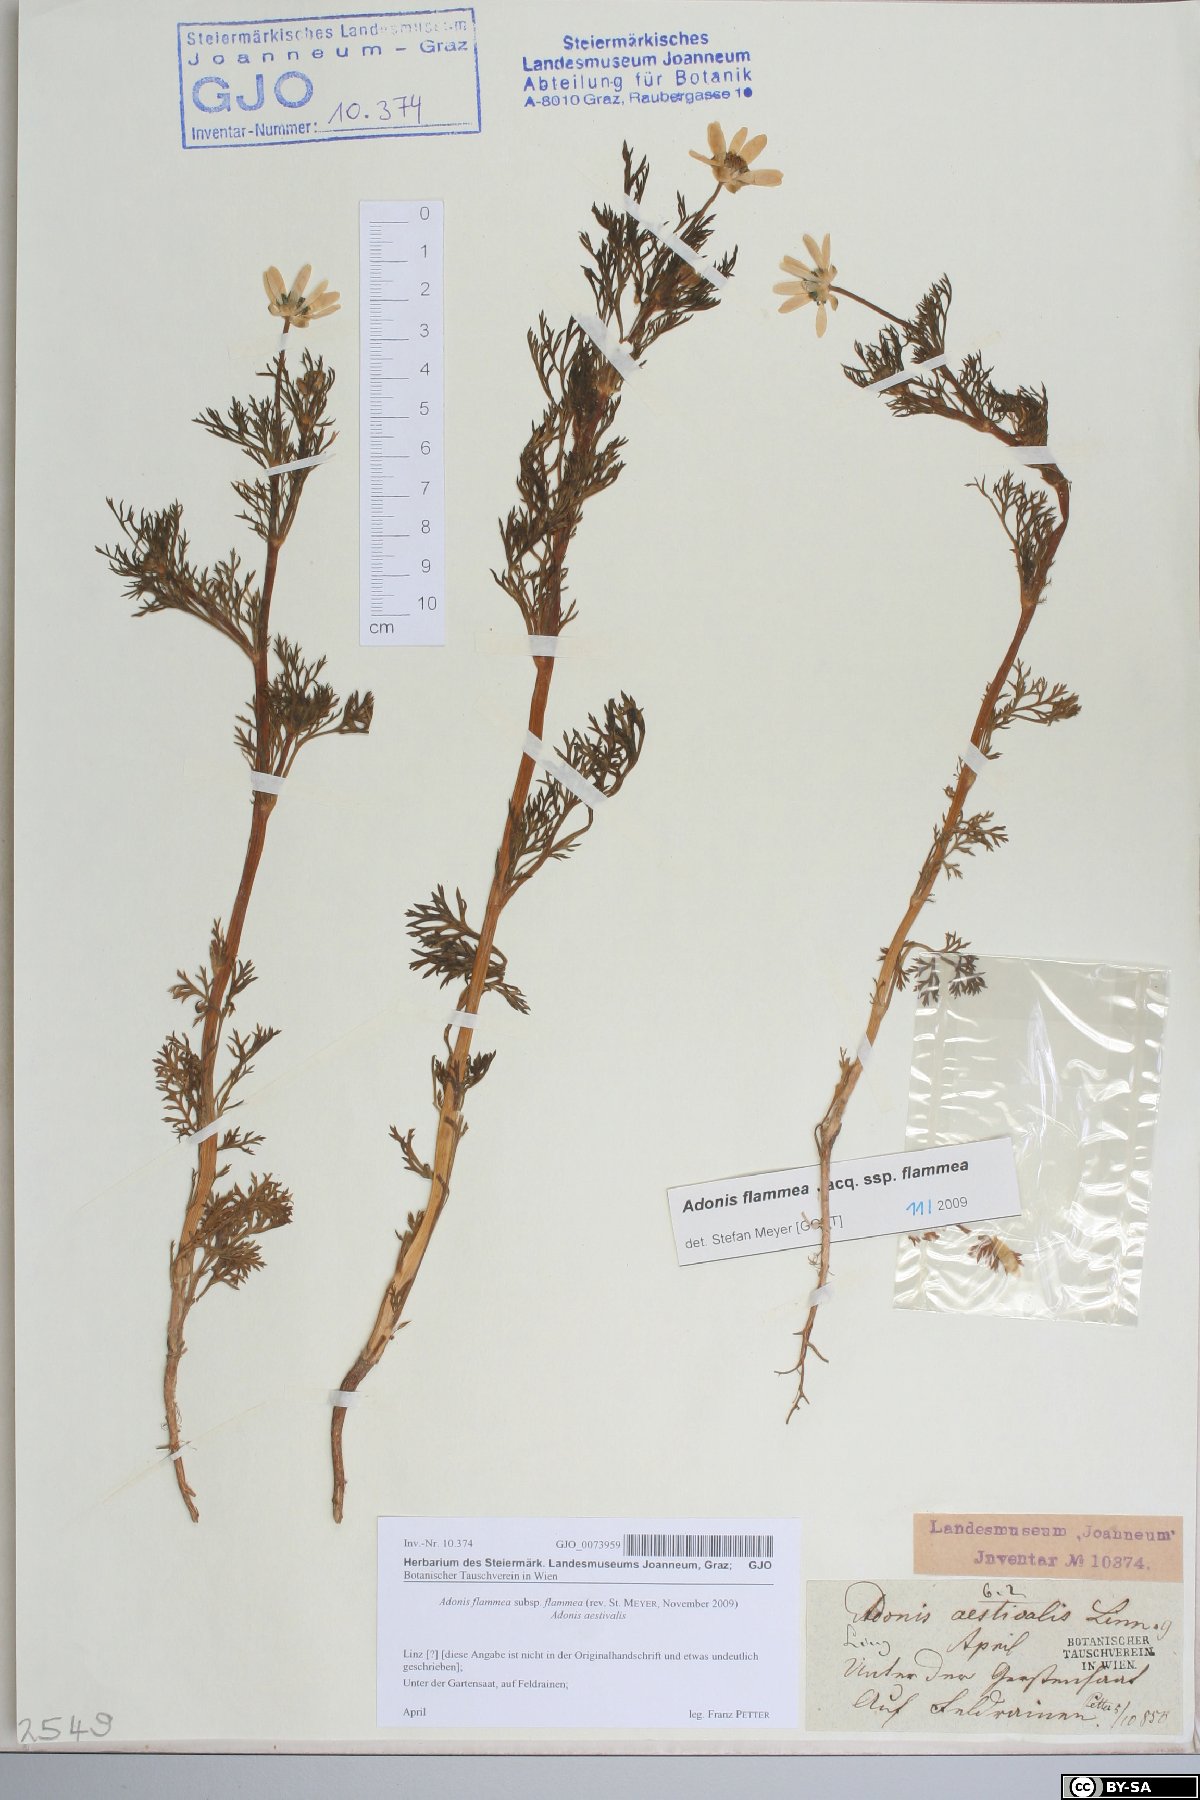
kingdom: Plantae
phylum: Tracheophyta
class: Magnoliopsida
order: Ranunculales
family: Ranunculaceae
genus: Adonis
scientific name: Adonis flammea
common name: Large pheasant's-eye
